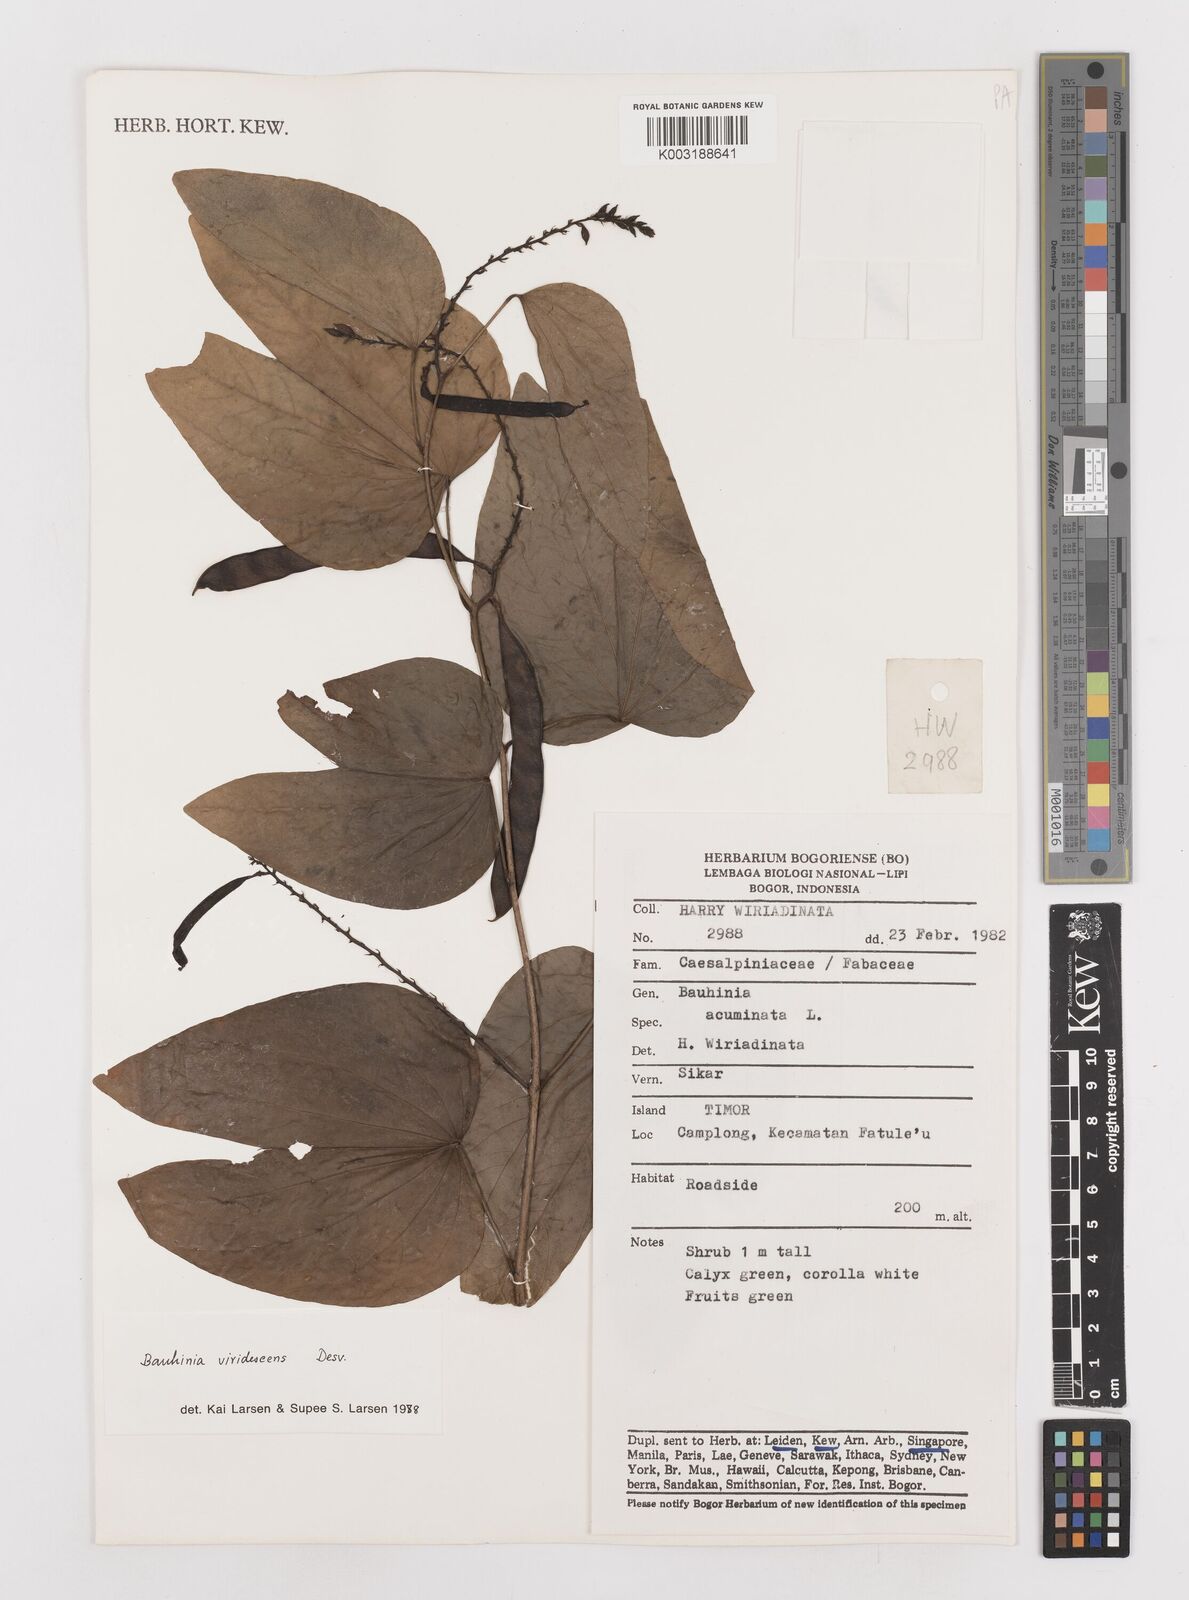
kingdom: Plantae
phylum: Tracheophyta
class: Magnoliopsida
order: Fabales
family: Fabaceae
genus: Bauhinia
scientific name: Bauhinia viridescens
